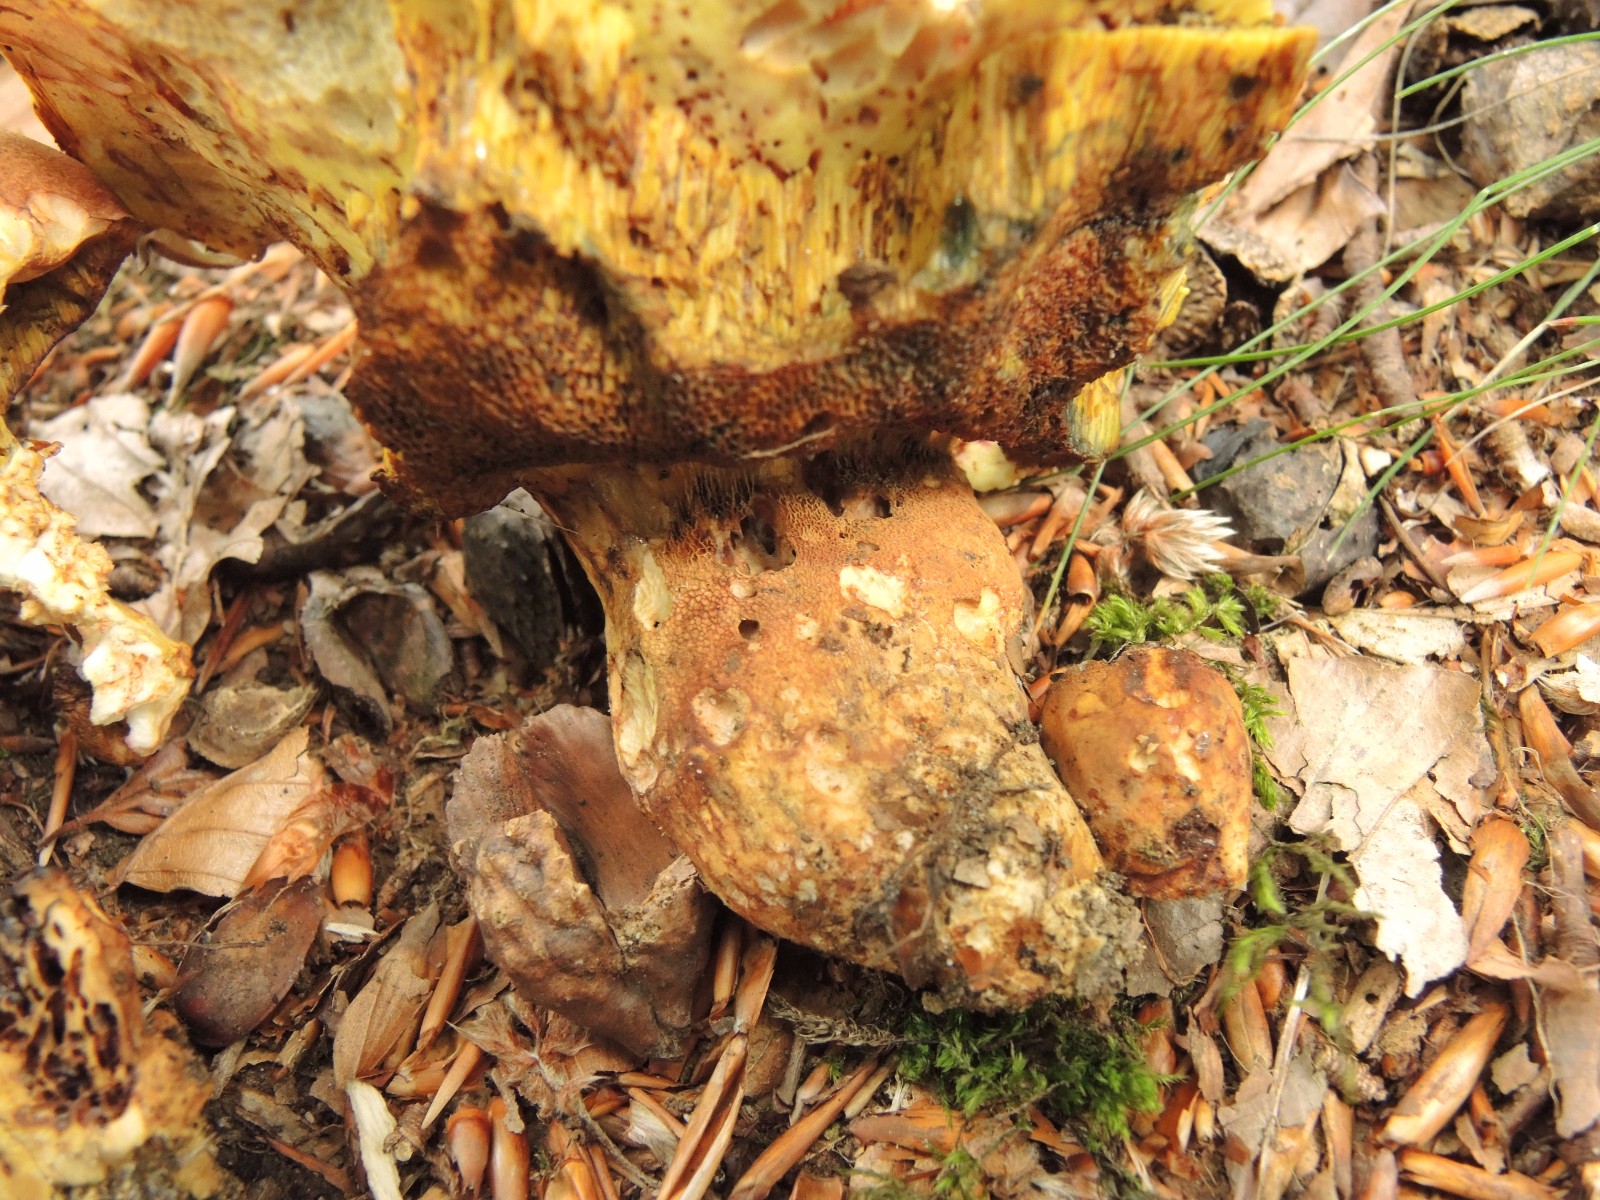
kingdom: Fungi
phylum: Basidiomycota
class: Agaricomycetes
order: Boletales
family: Boletaceae
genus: Butyriboletus
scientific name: Butyriboletus appendiculatus
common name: tenstokket rørhat
